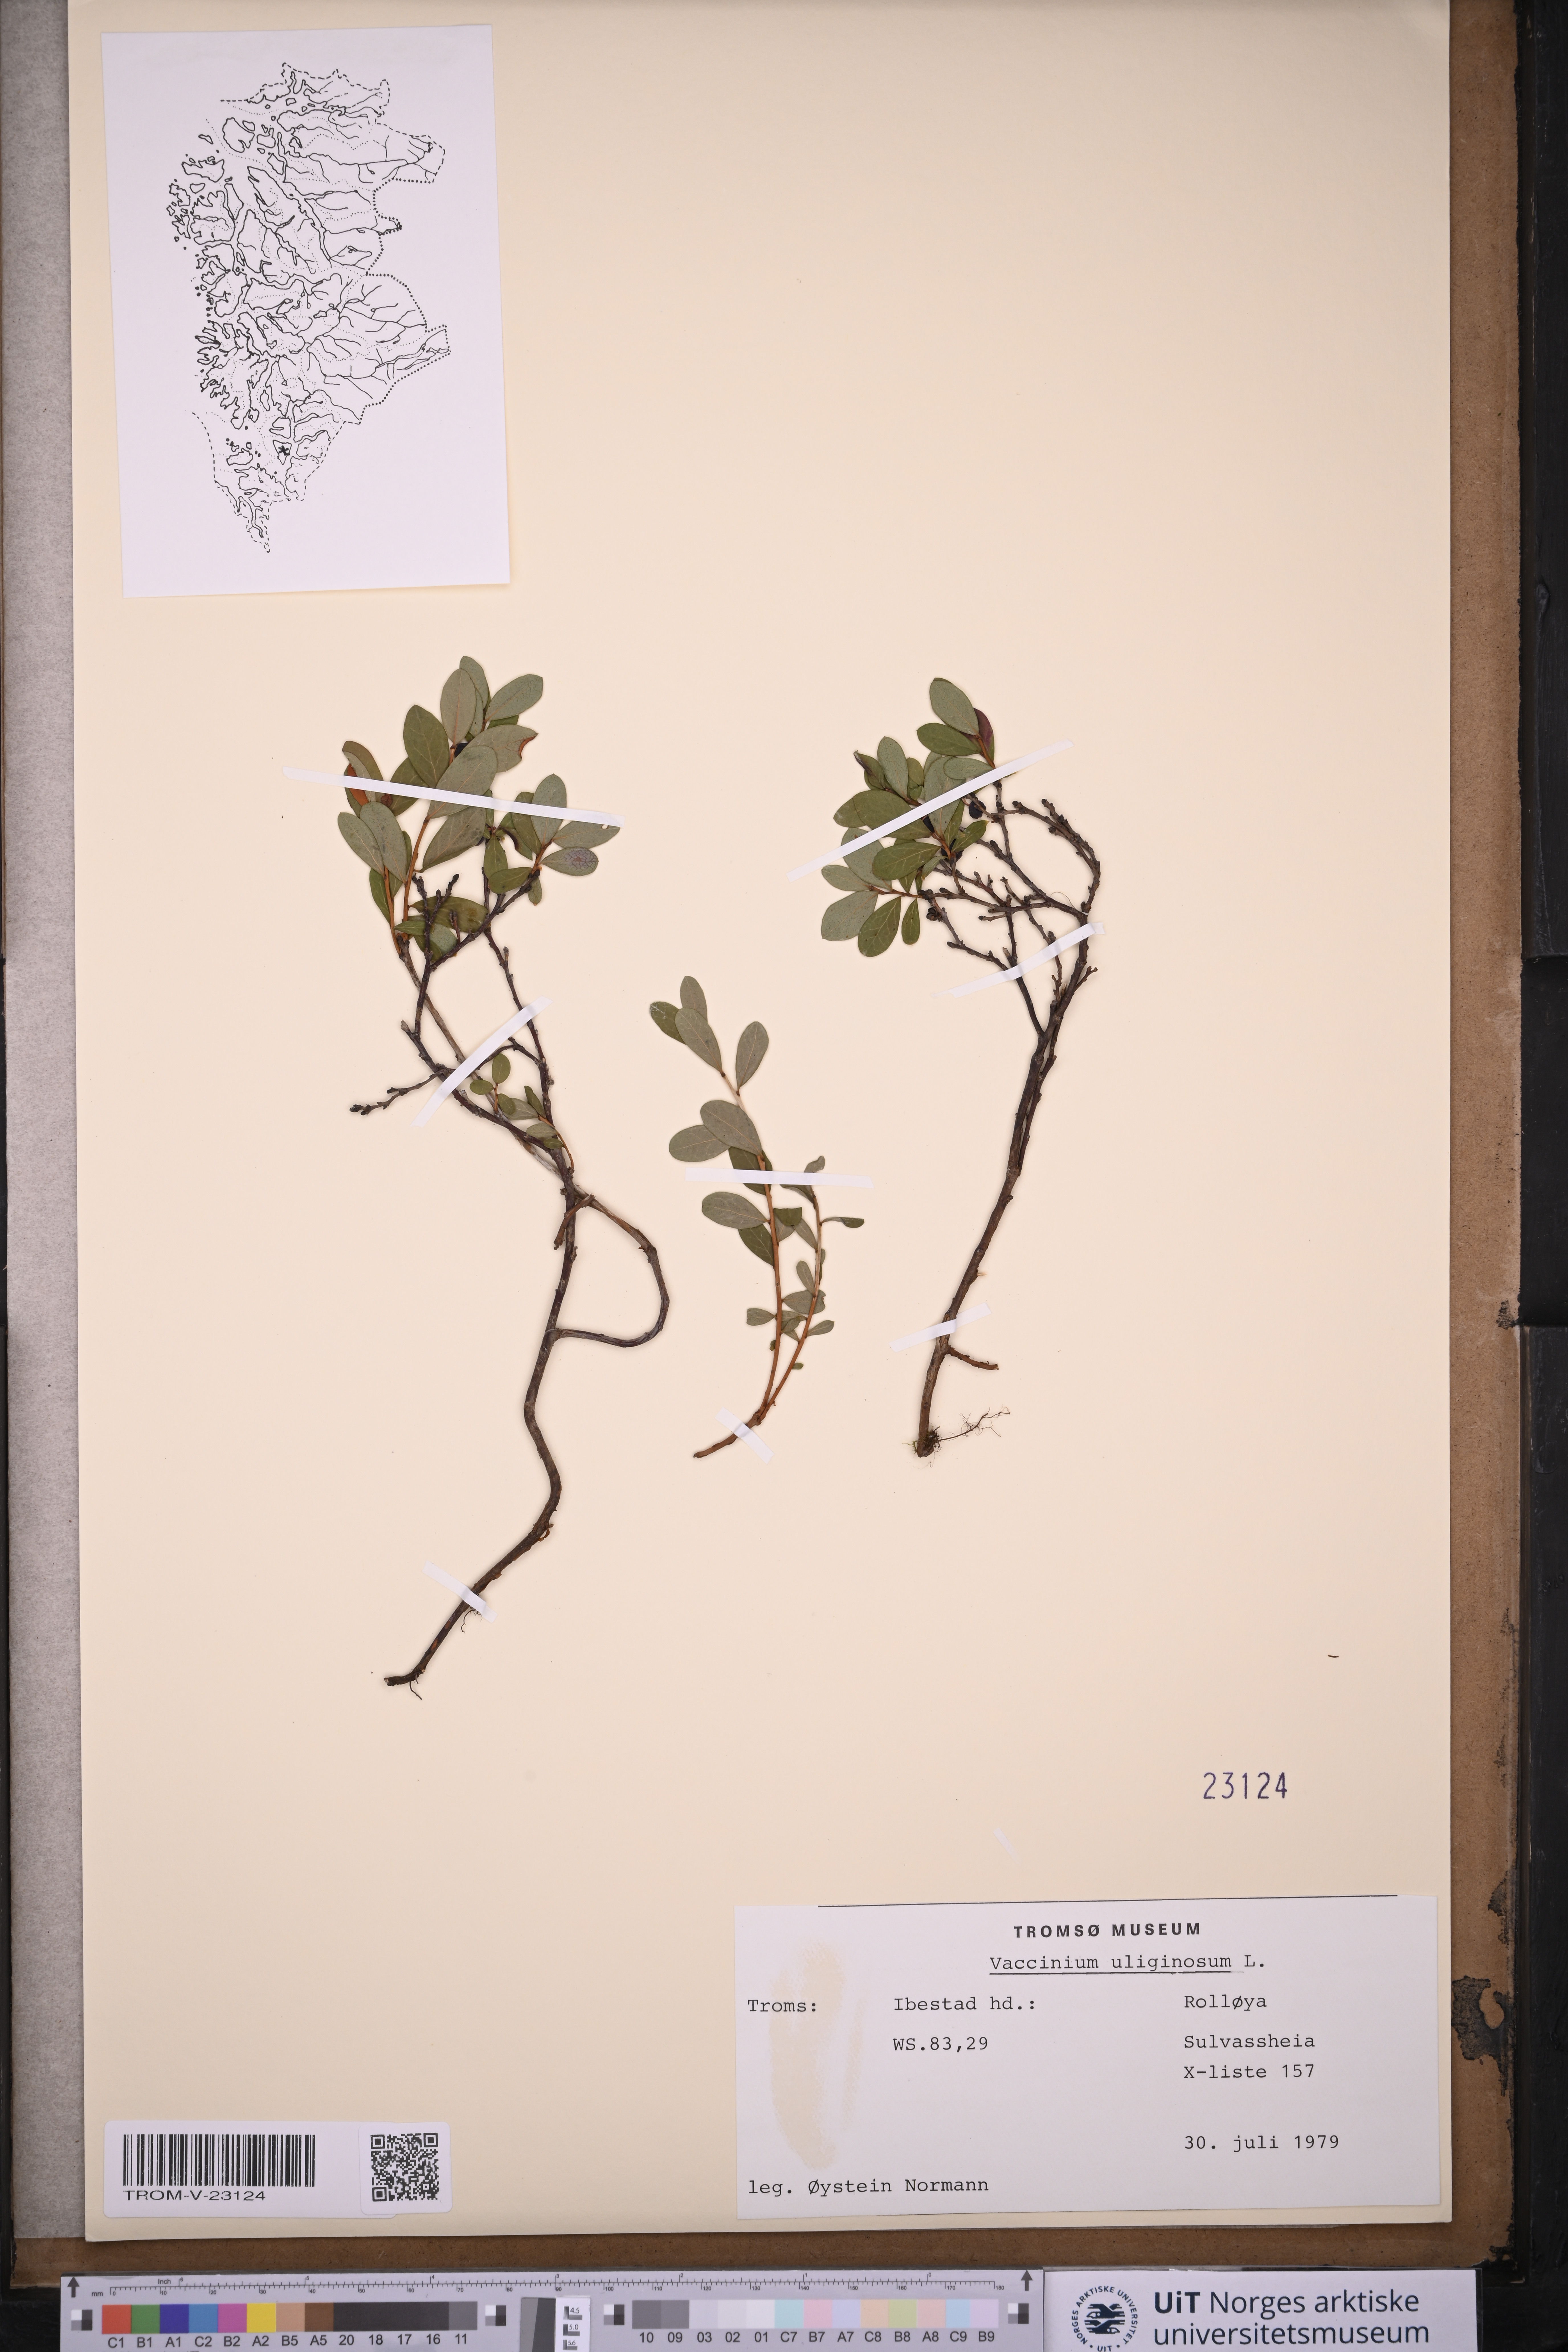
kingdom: Plantae
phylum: Tracheophyta
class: Magnoliopsida
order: Ericales
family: Ericaceae
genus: Vaccinium
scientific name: Vaccinium uliginosum
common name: Bog bilberry
